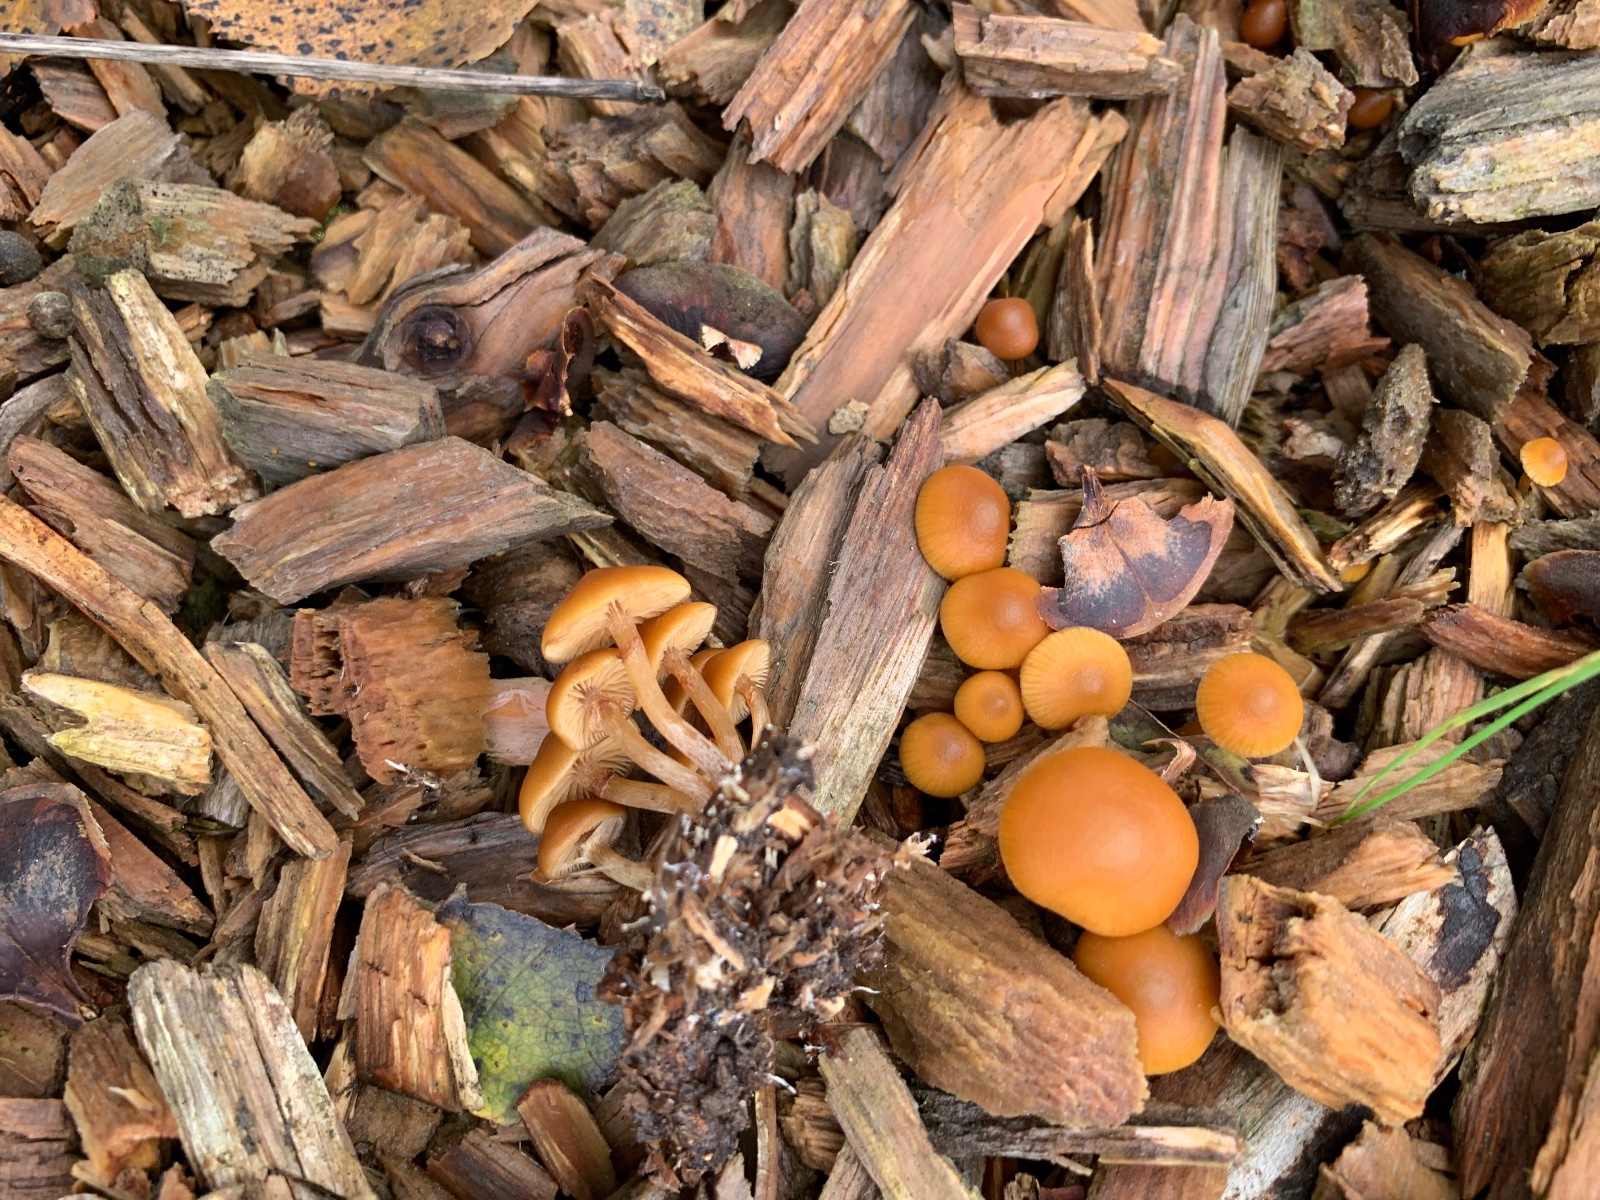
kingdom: Fungi
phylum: Basidiomycota
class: Agaricomycetes
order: Agaricales
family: Hymenogastraceae
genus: Galerina
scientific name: Galerina marginata
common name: randbæltet hjelmhat
